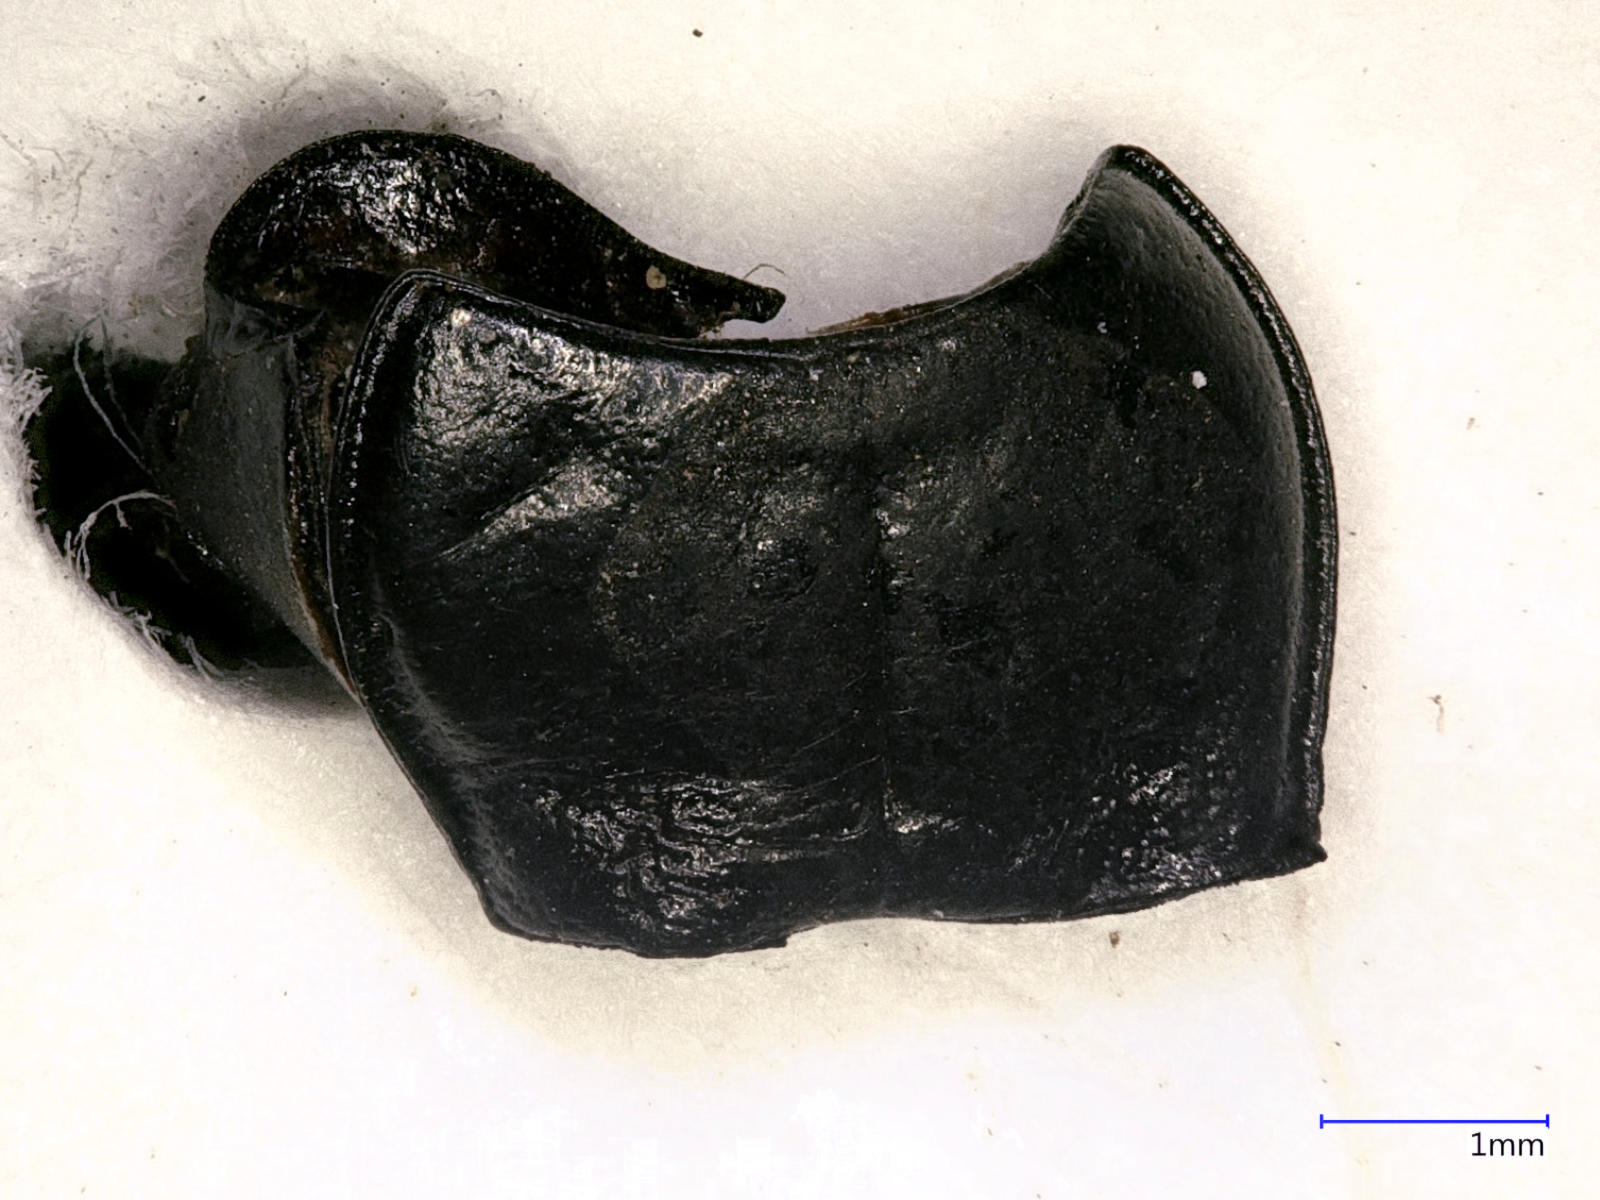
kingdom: Animalia
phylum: Arthropoda
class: Insecta
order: Coleoptera
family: Carabidae
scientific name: Carabidae
